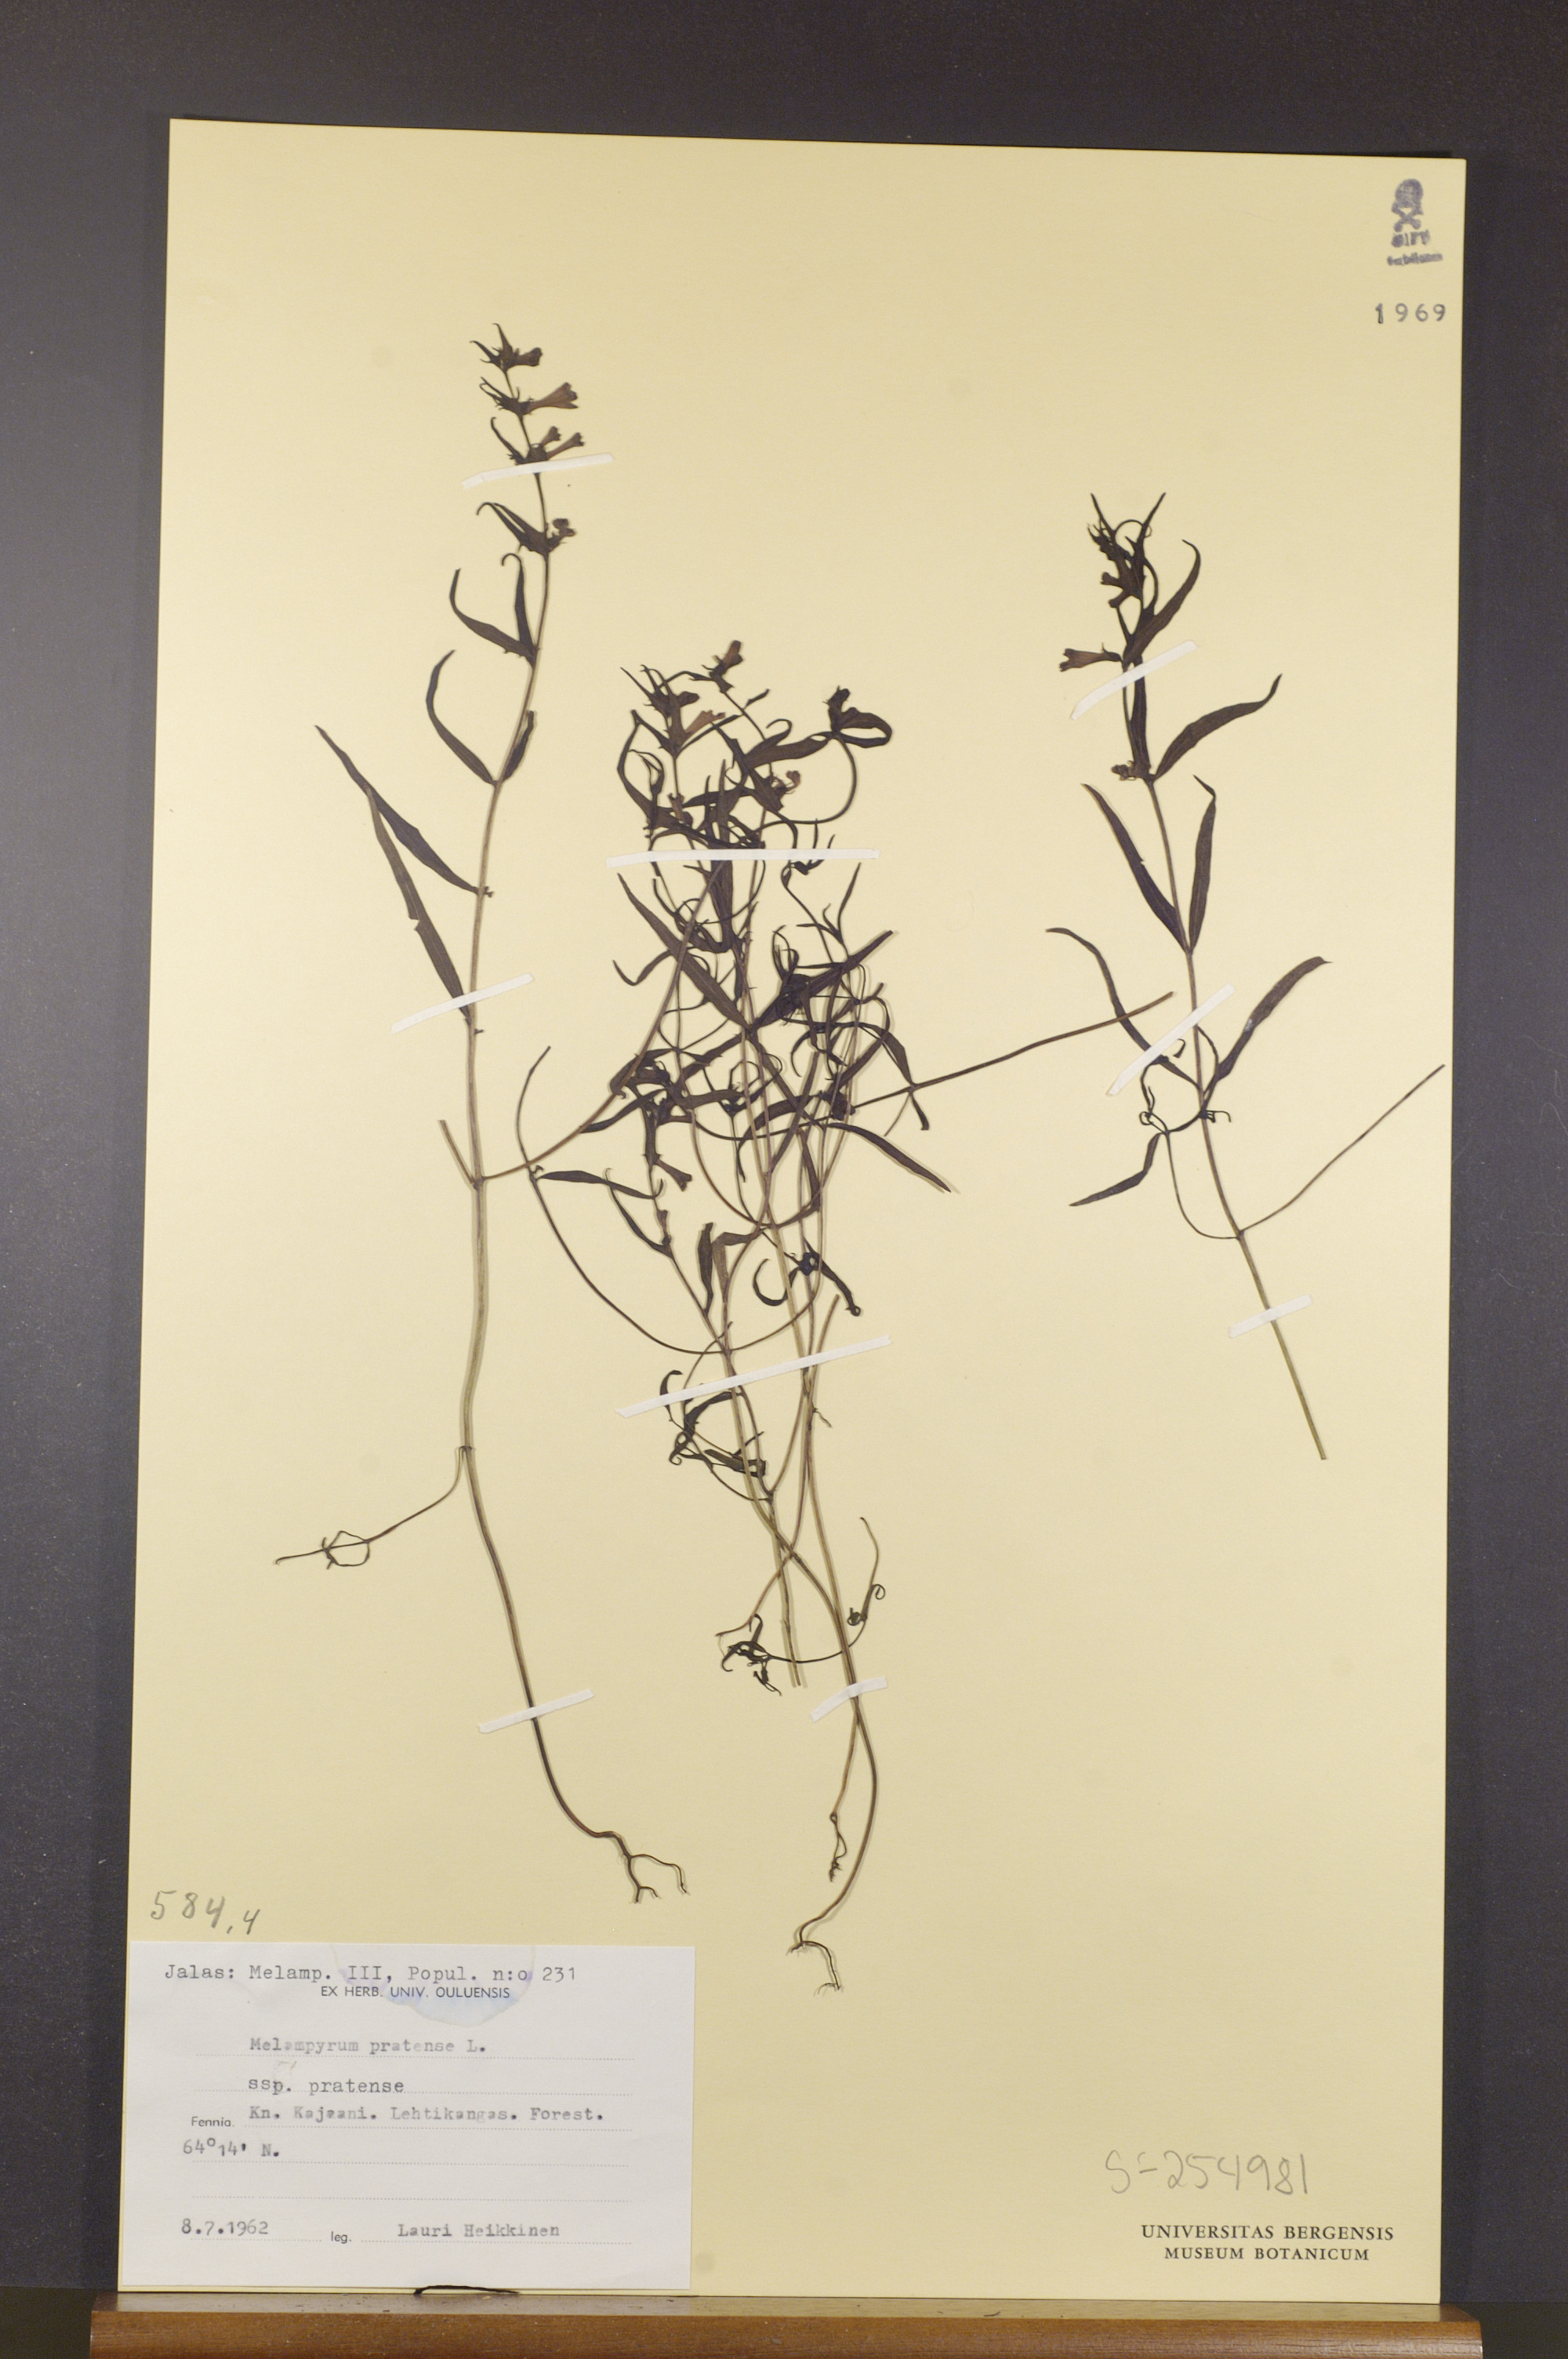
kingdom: Plantae
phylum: Tracheophyta
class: Magnoliopsida
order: Lamiales
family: Orobanchaceae
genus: Melampyrum
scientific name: Melampyrum pratense
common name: Common cow-wheat
